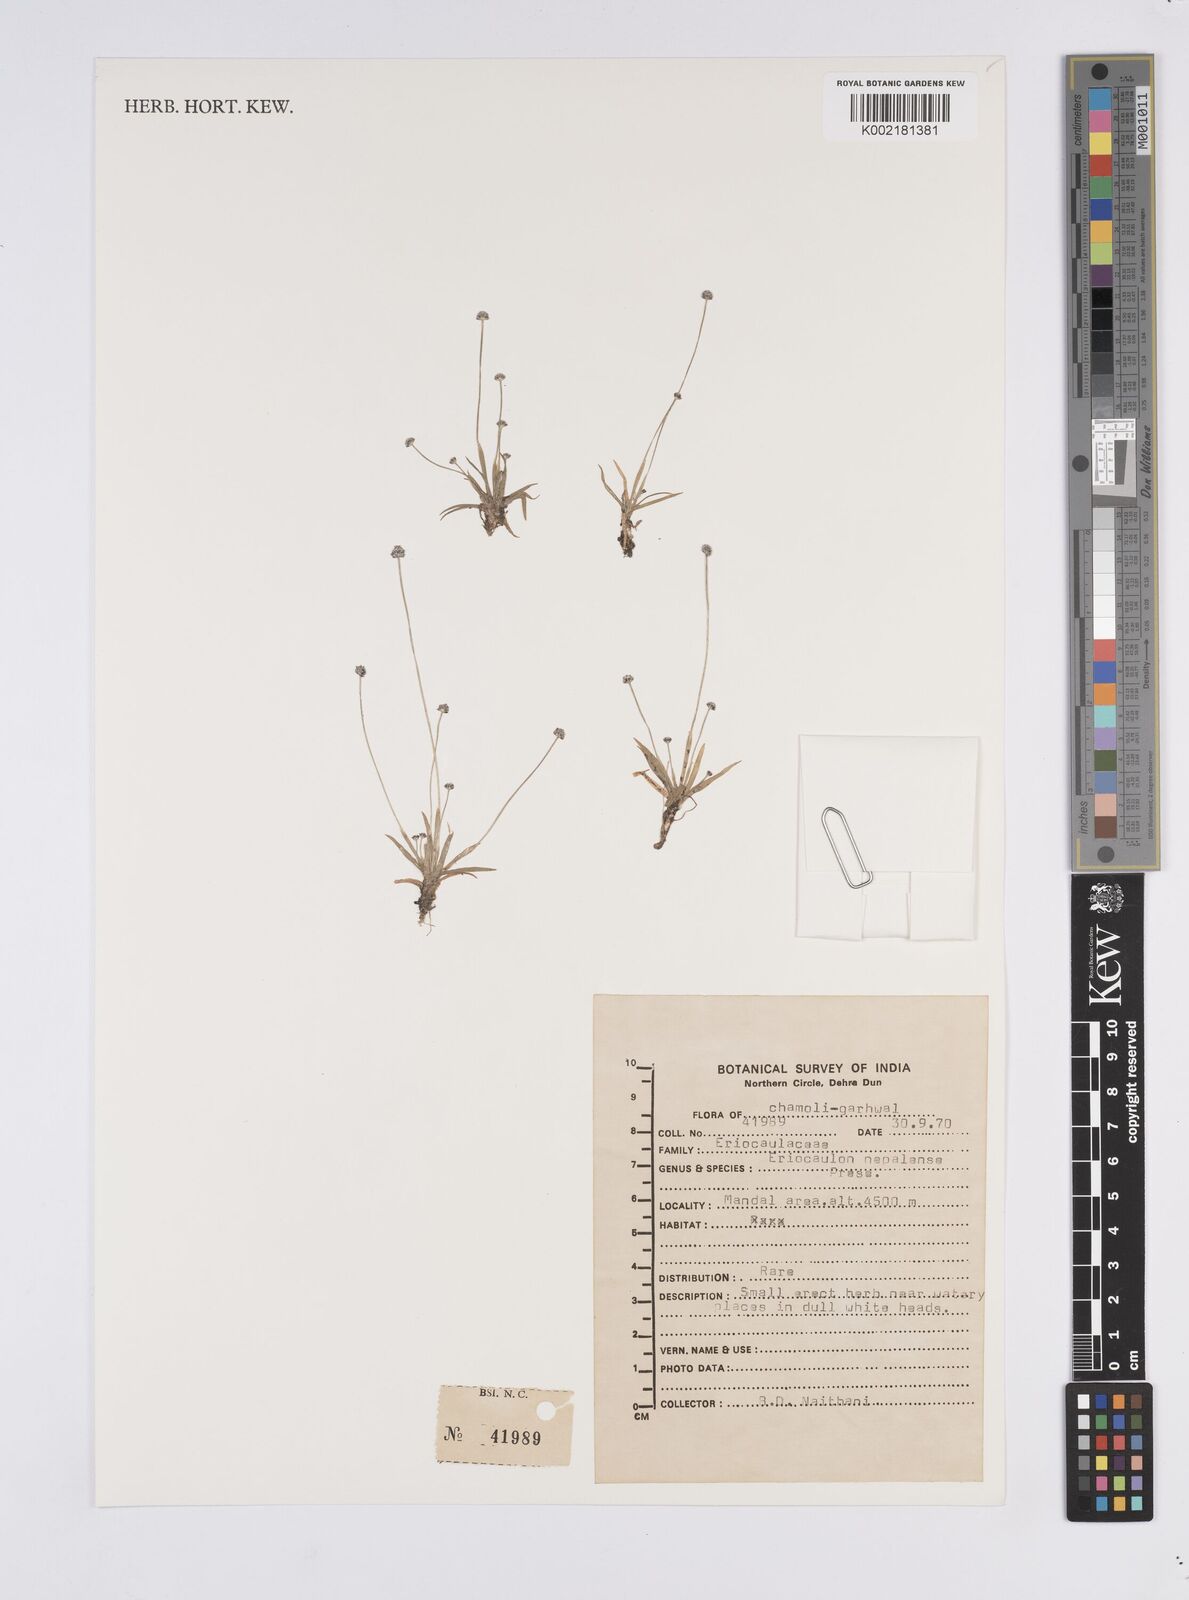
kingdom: Plantae
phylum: Tracheophyta
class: Liliopsida
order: Poales
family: Eriocaulaceae
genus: Eriocaulon
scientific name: Eriocaulon nepalense
